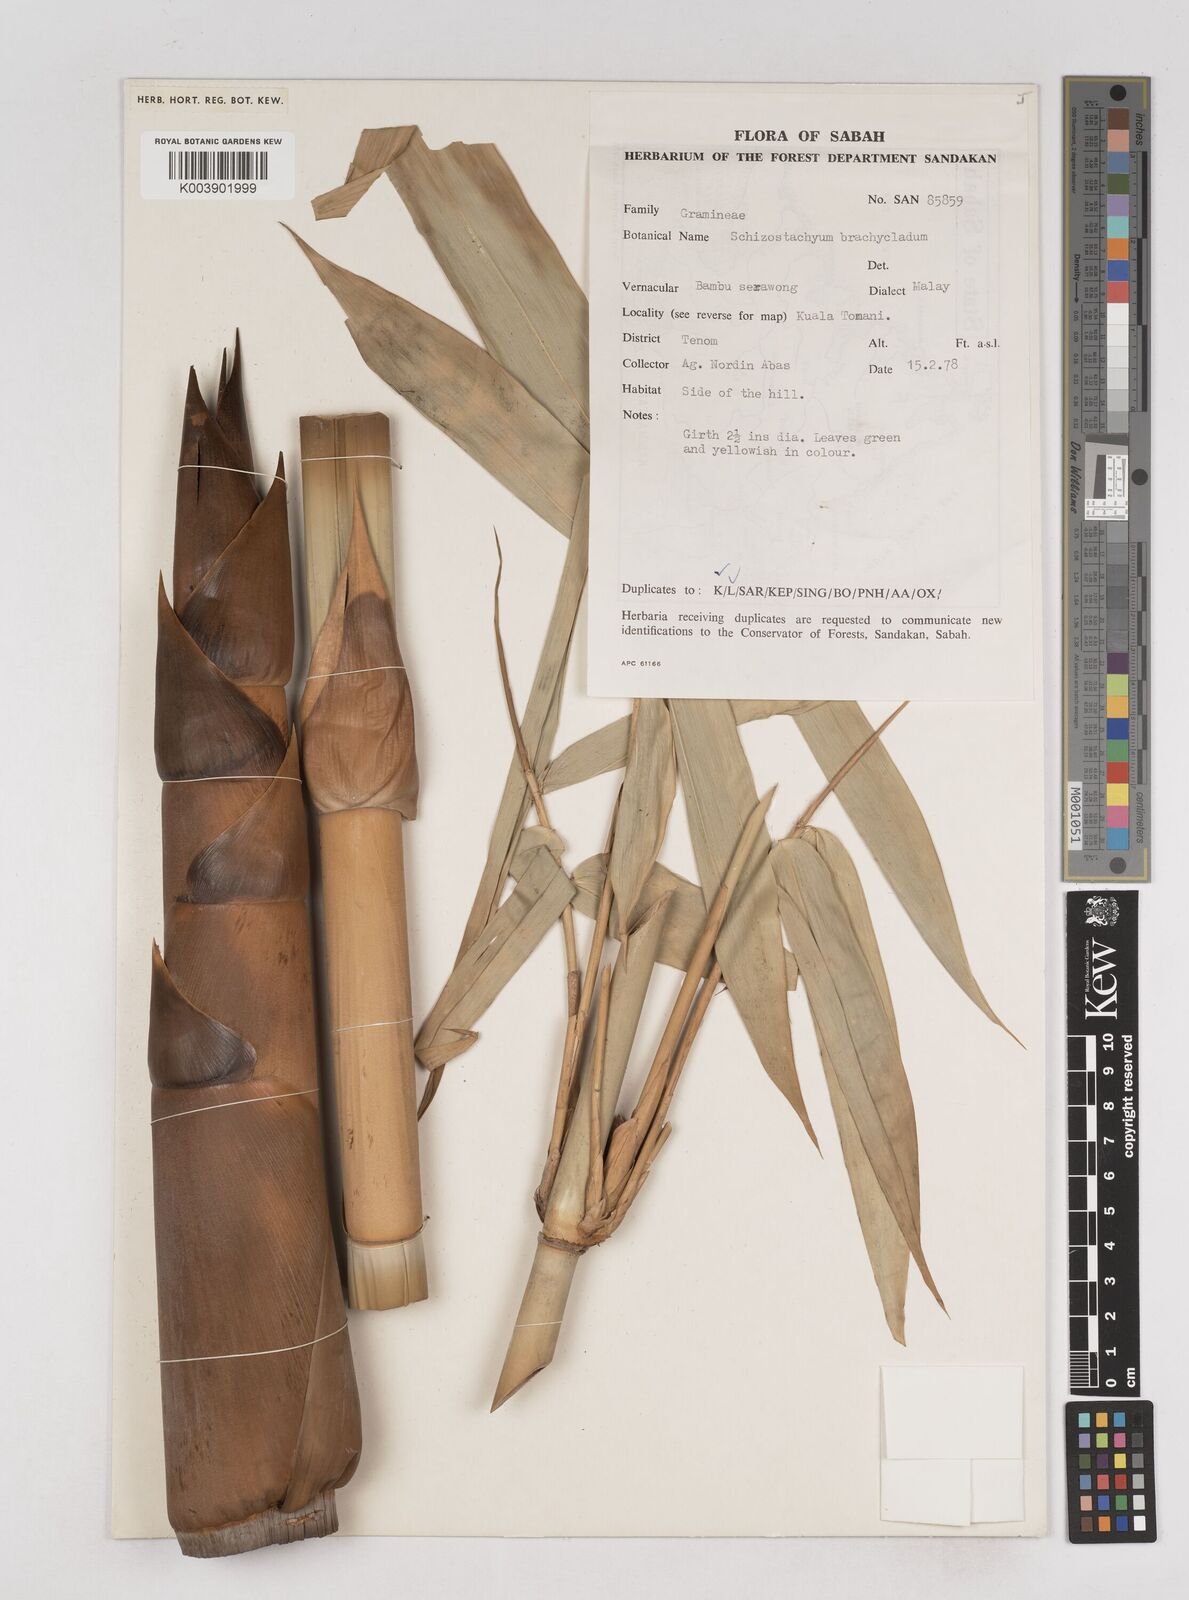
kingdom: Plantae
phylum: Tracheophyta
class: Liliopsida
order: Poales
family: Poaceae
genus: Schizostachyum
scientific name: Schizostachyum brachycladum
